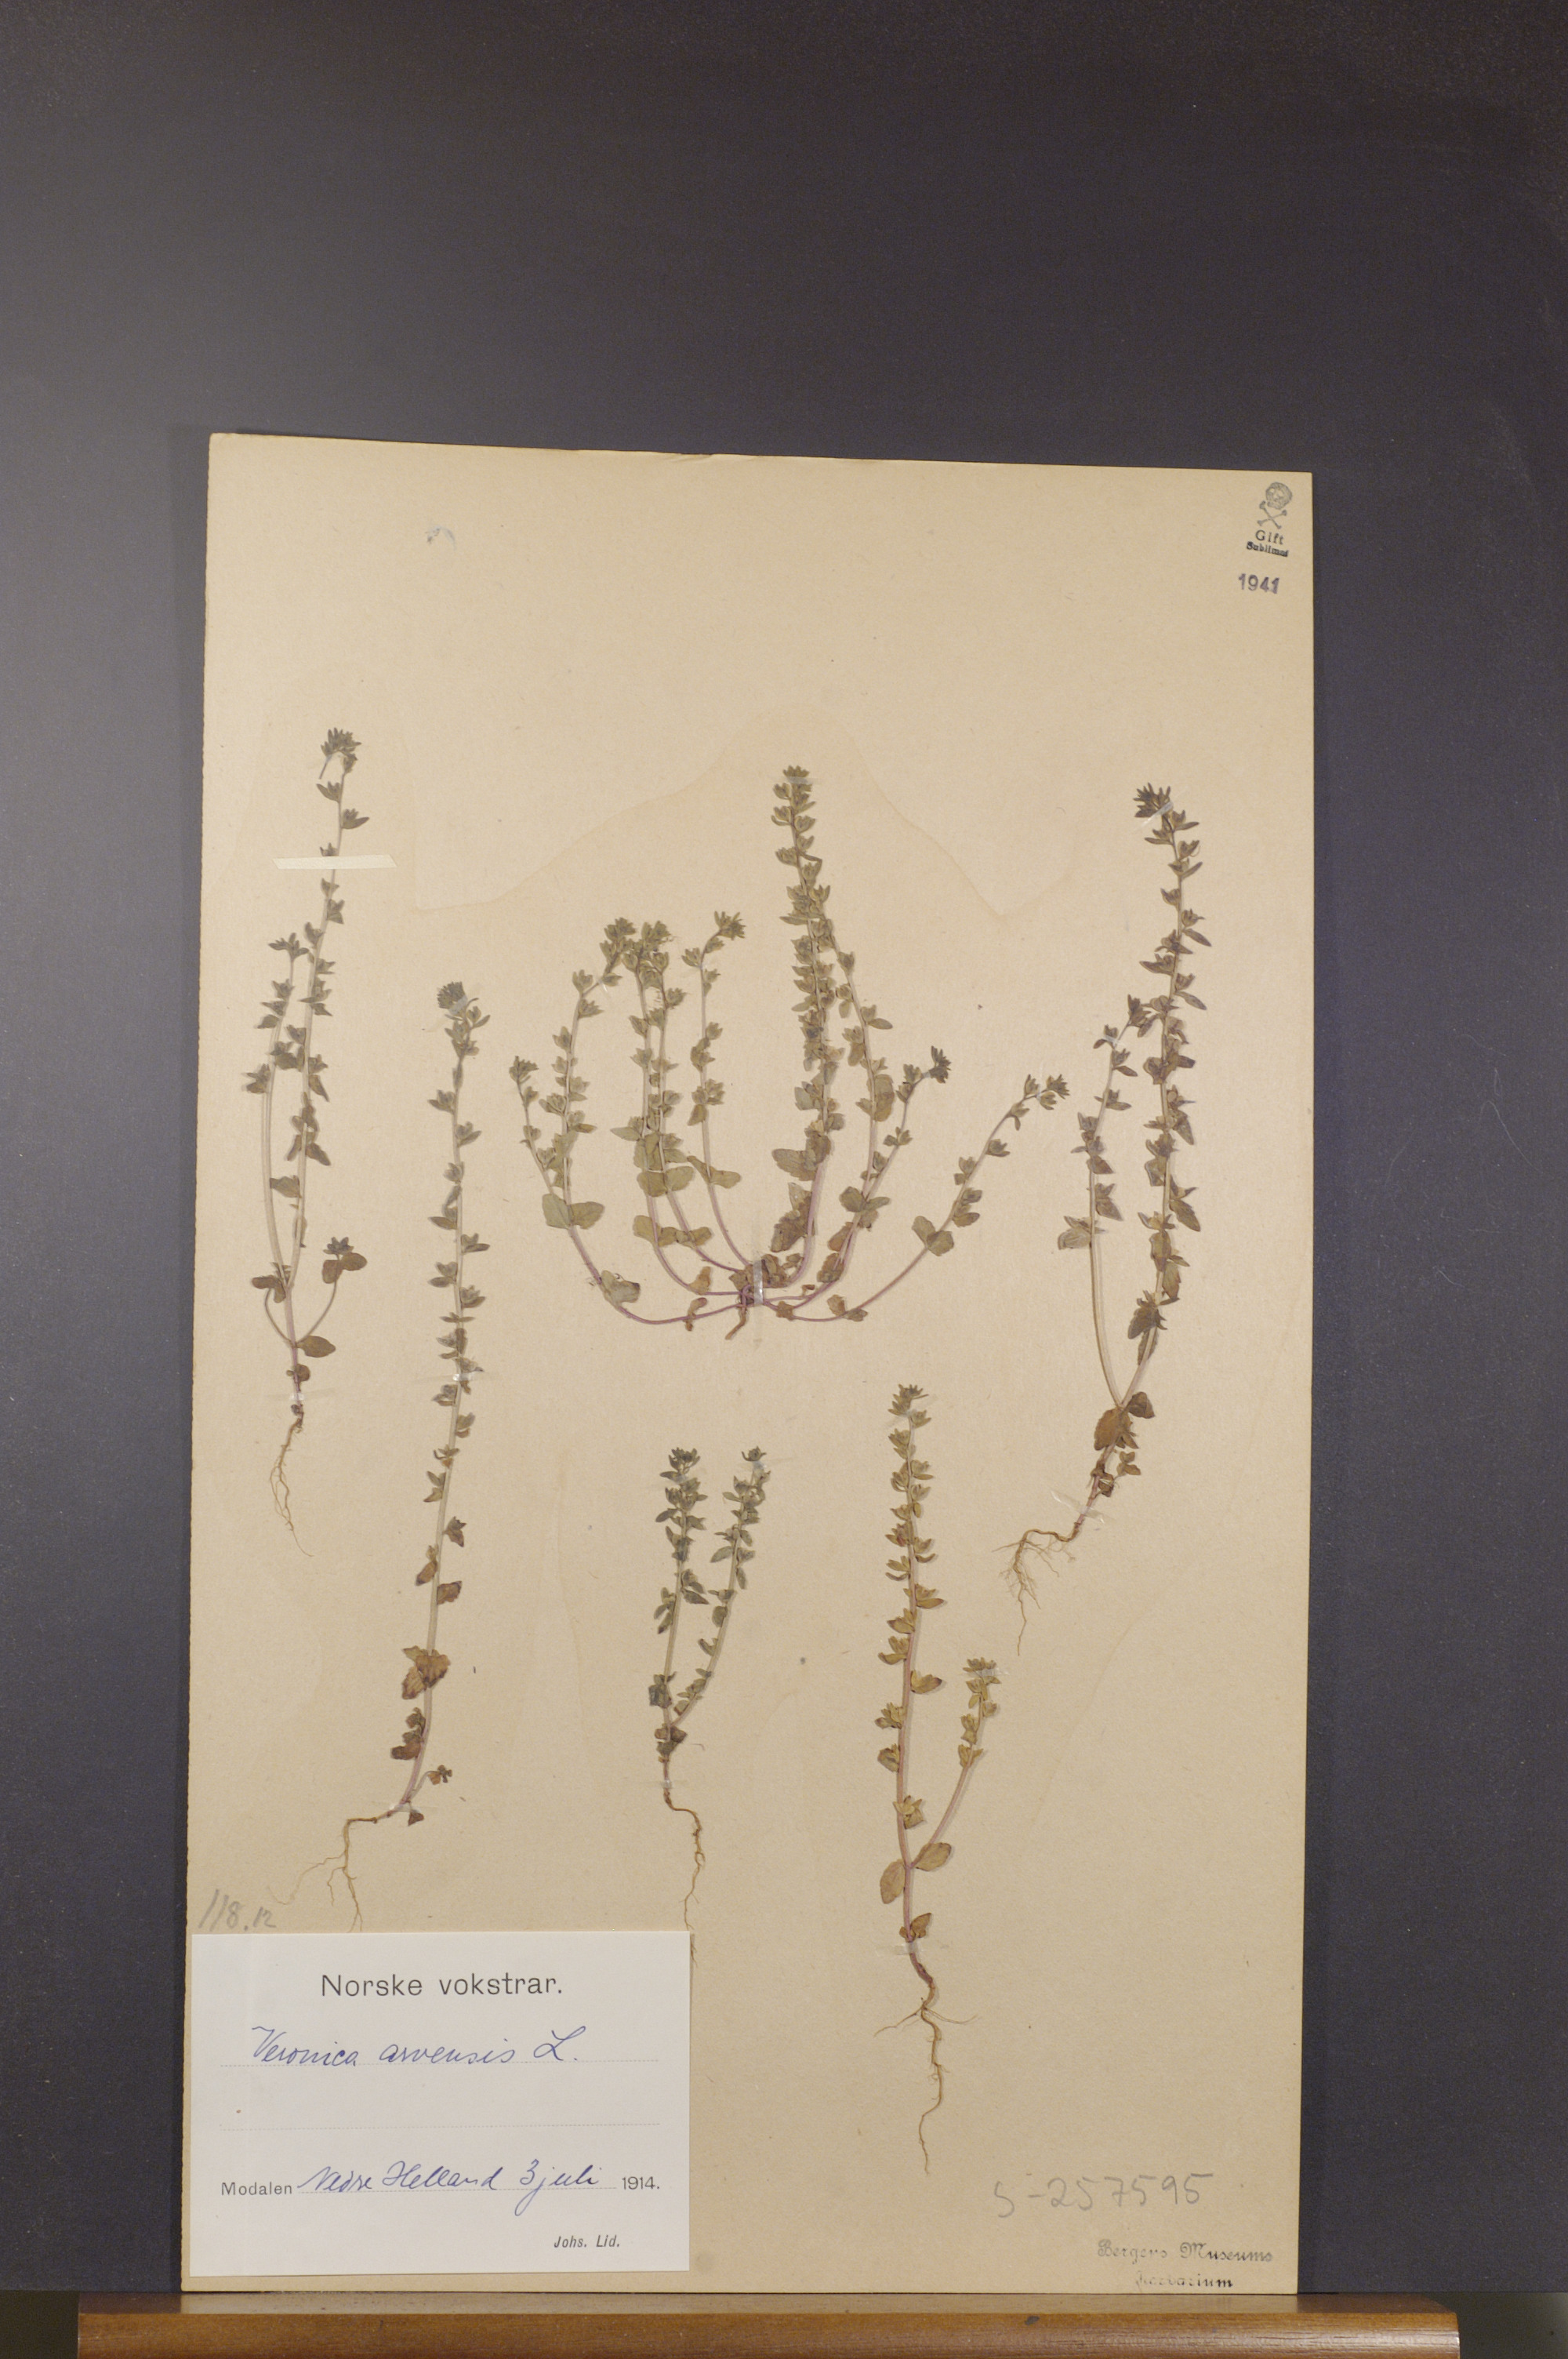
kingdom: Plantae
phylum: Tracheophyta
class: Magnoliopsida
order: Lamiales
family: Plantaginaceae
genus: Veronica
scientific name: Veronica arvensis
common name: Corn speedwell
